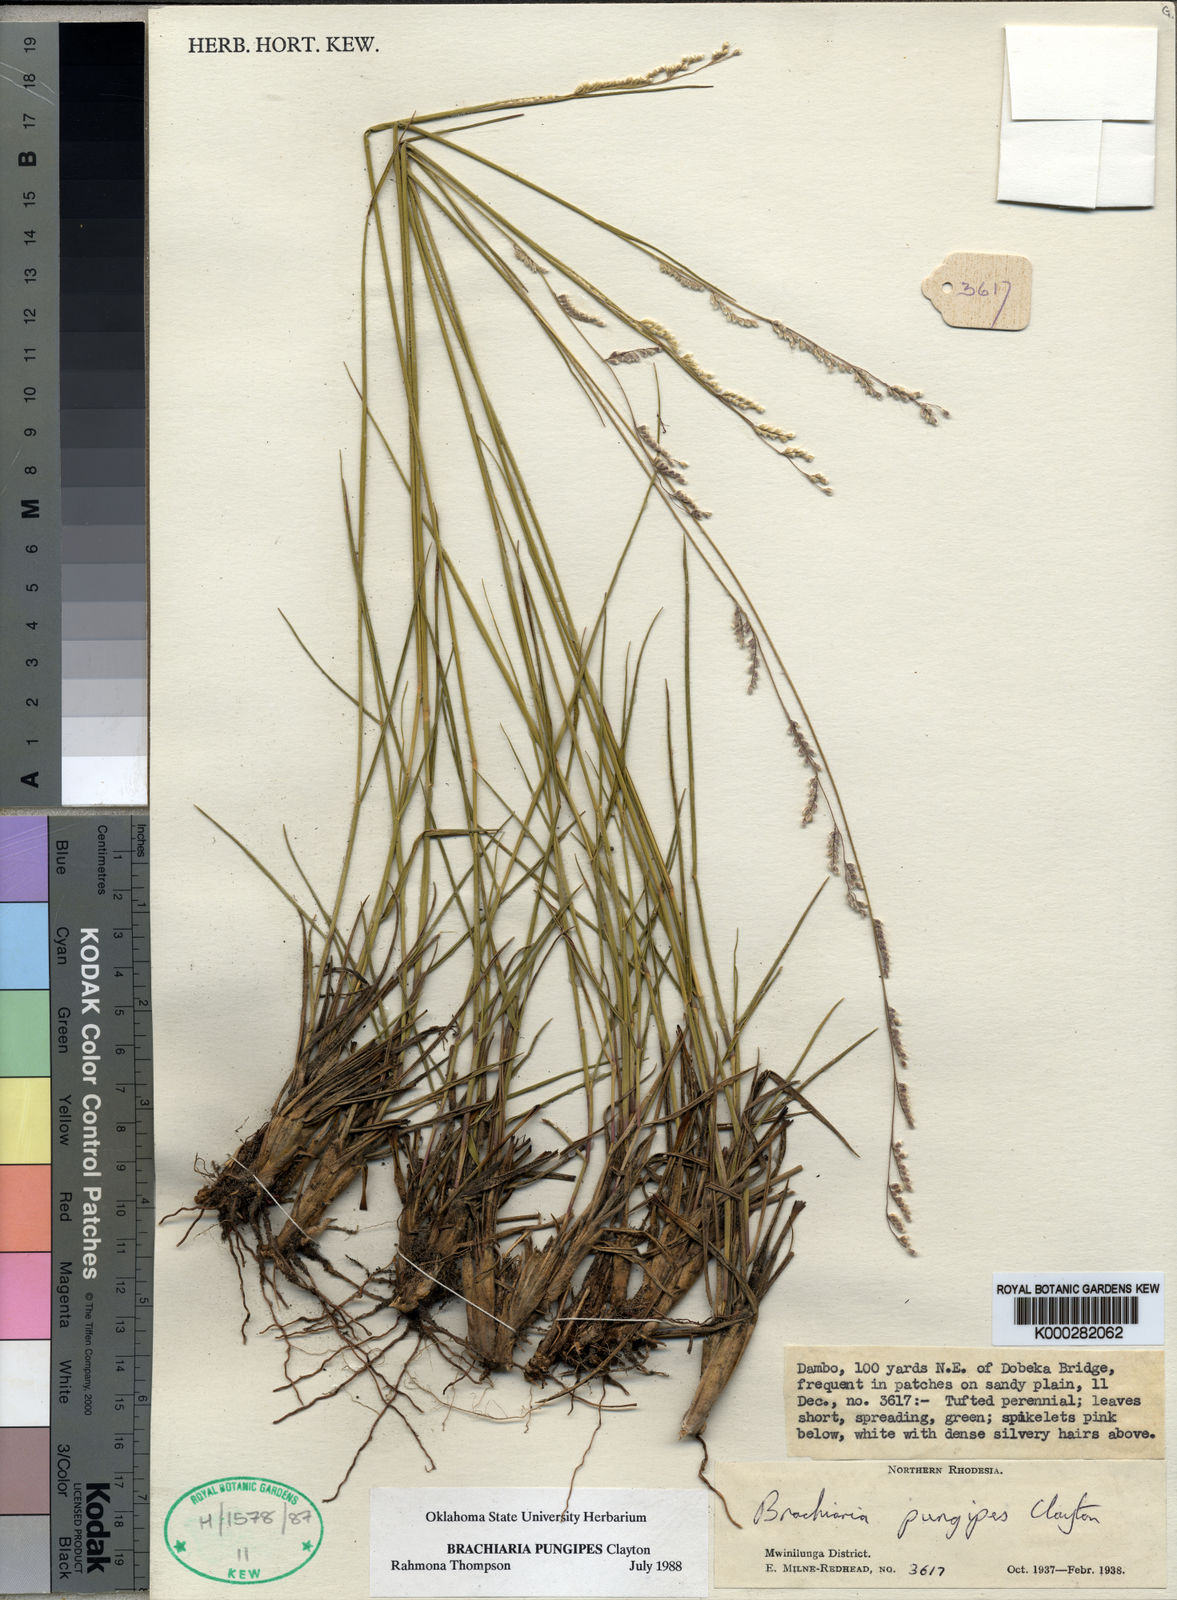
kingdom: Plantae
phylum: Tracheophyta
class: Liliopsida
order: Poales
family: Poaceae
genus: Urochloa
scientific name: Urochloa Brachiaria pungipes
